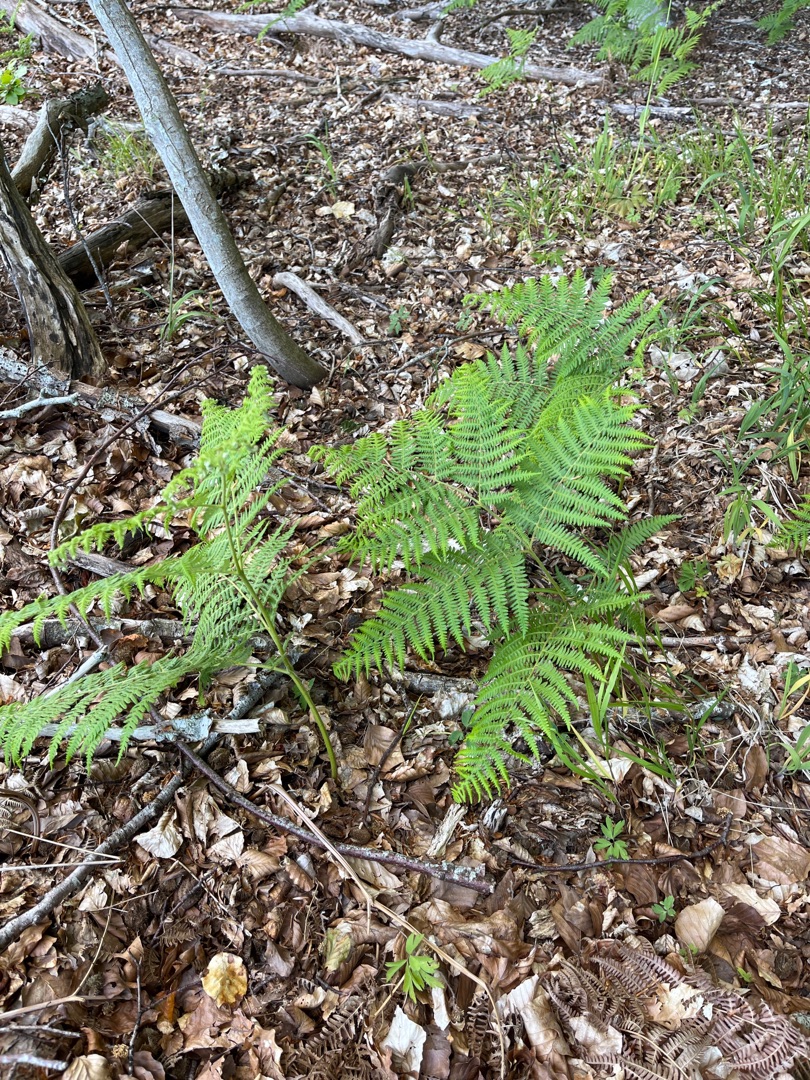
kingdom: Plantae
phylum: Tracheophyta
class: Polypodiopsida
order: Polypodiales
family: Dennstaedtiaceae
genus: Pteridium
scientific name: Pteridium aquilinum
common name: Ørnebregne
